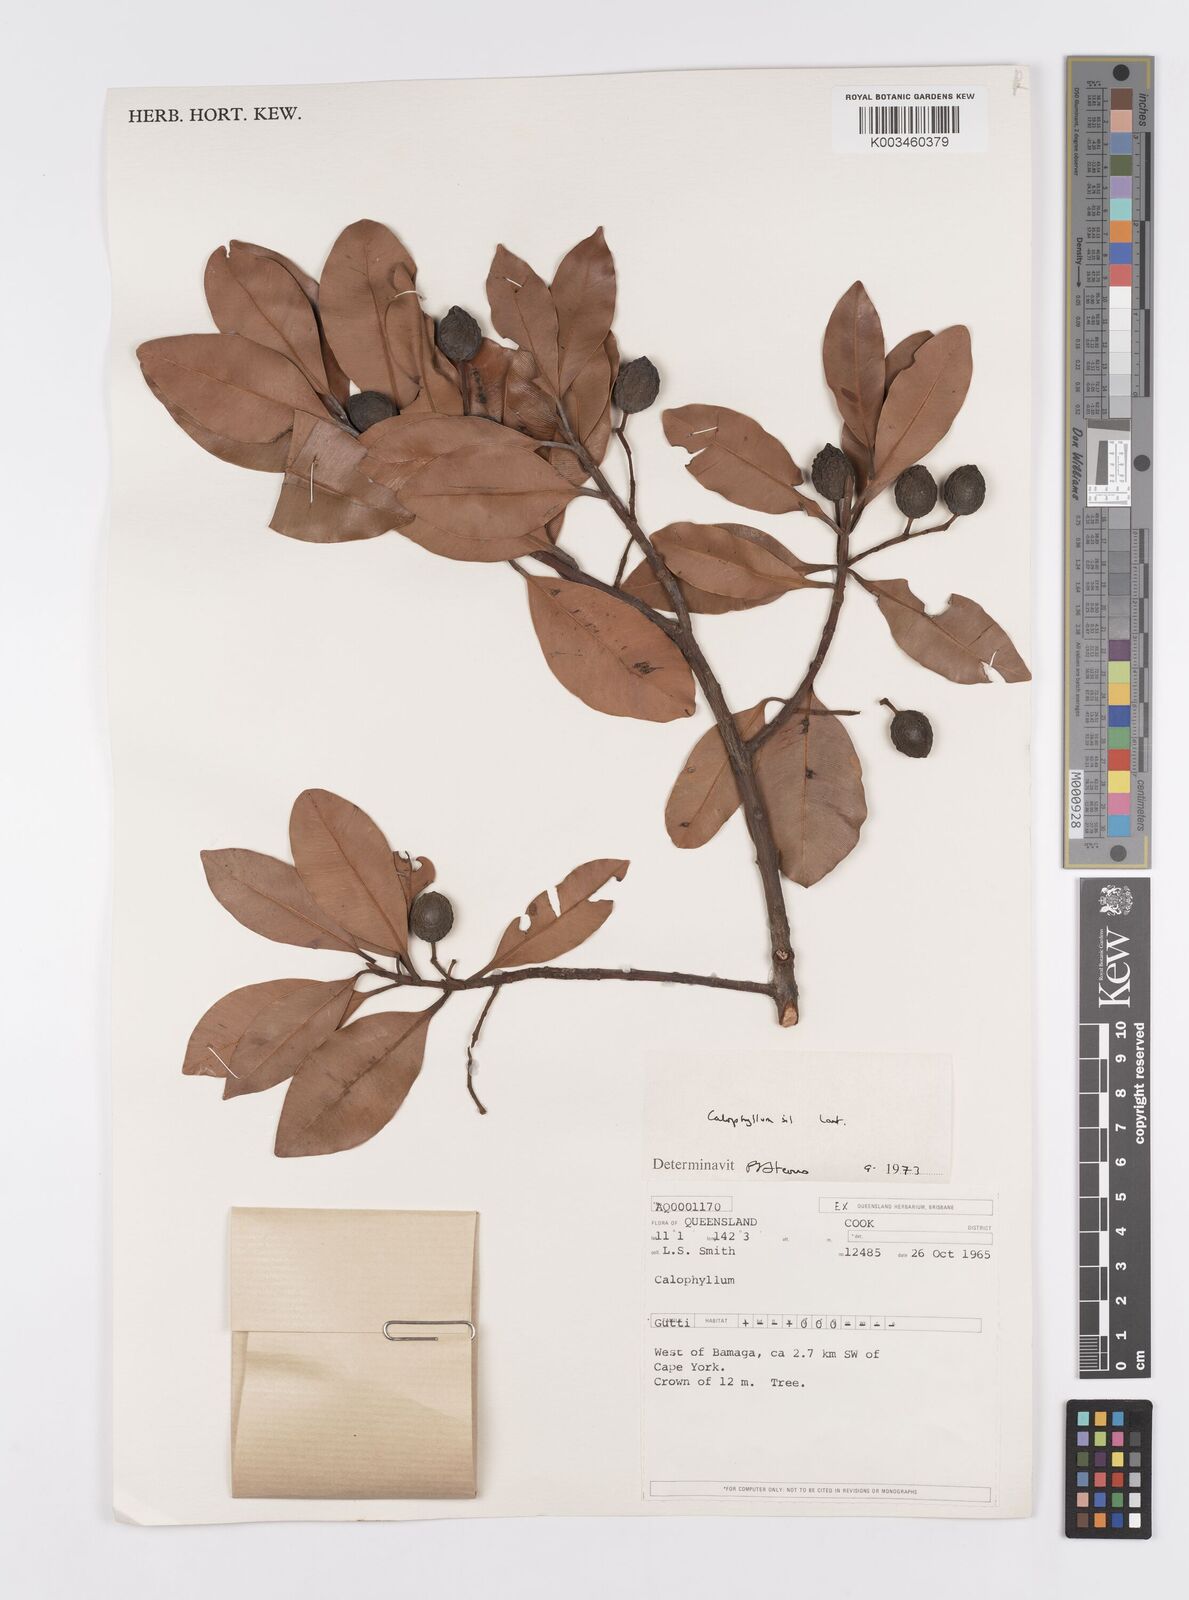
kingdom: Plantae
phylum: Tracheophyta
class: Magnoliopsida
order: Malpighiales
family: Calophyllaceae
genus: Calophyllum
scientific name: Calophyllum sil
